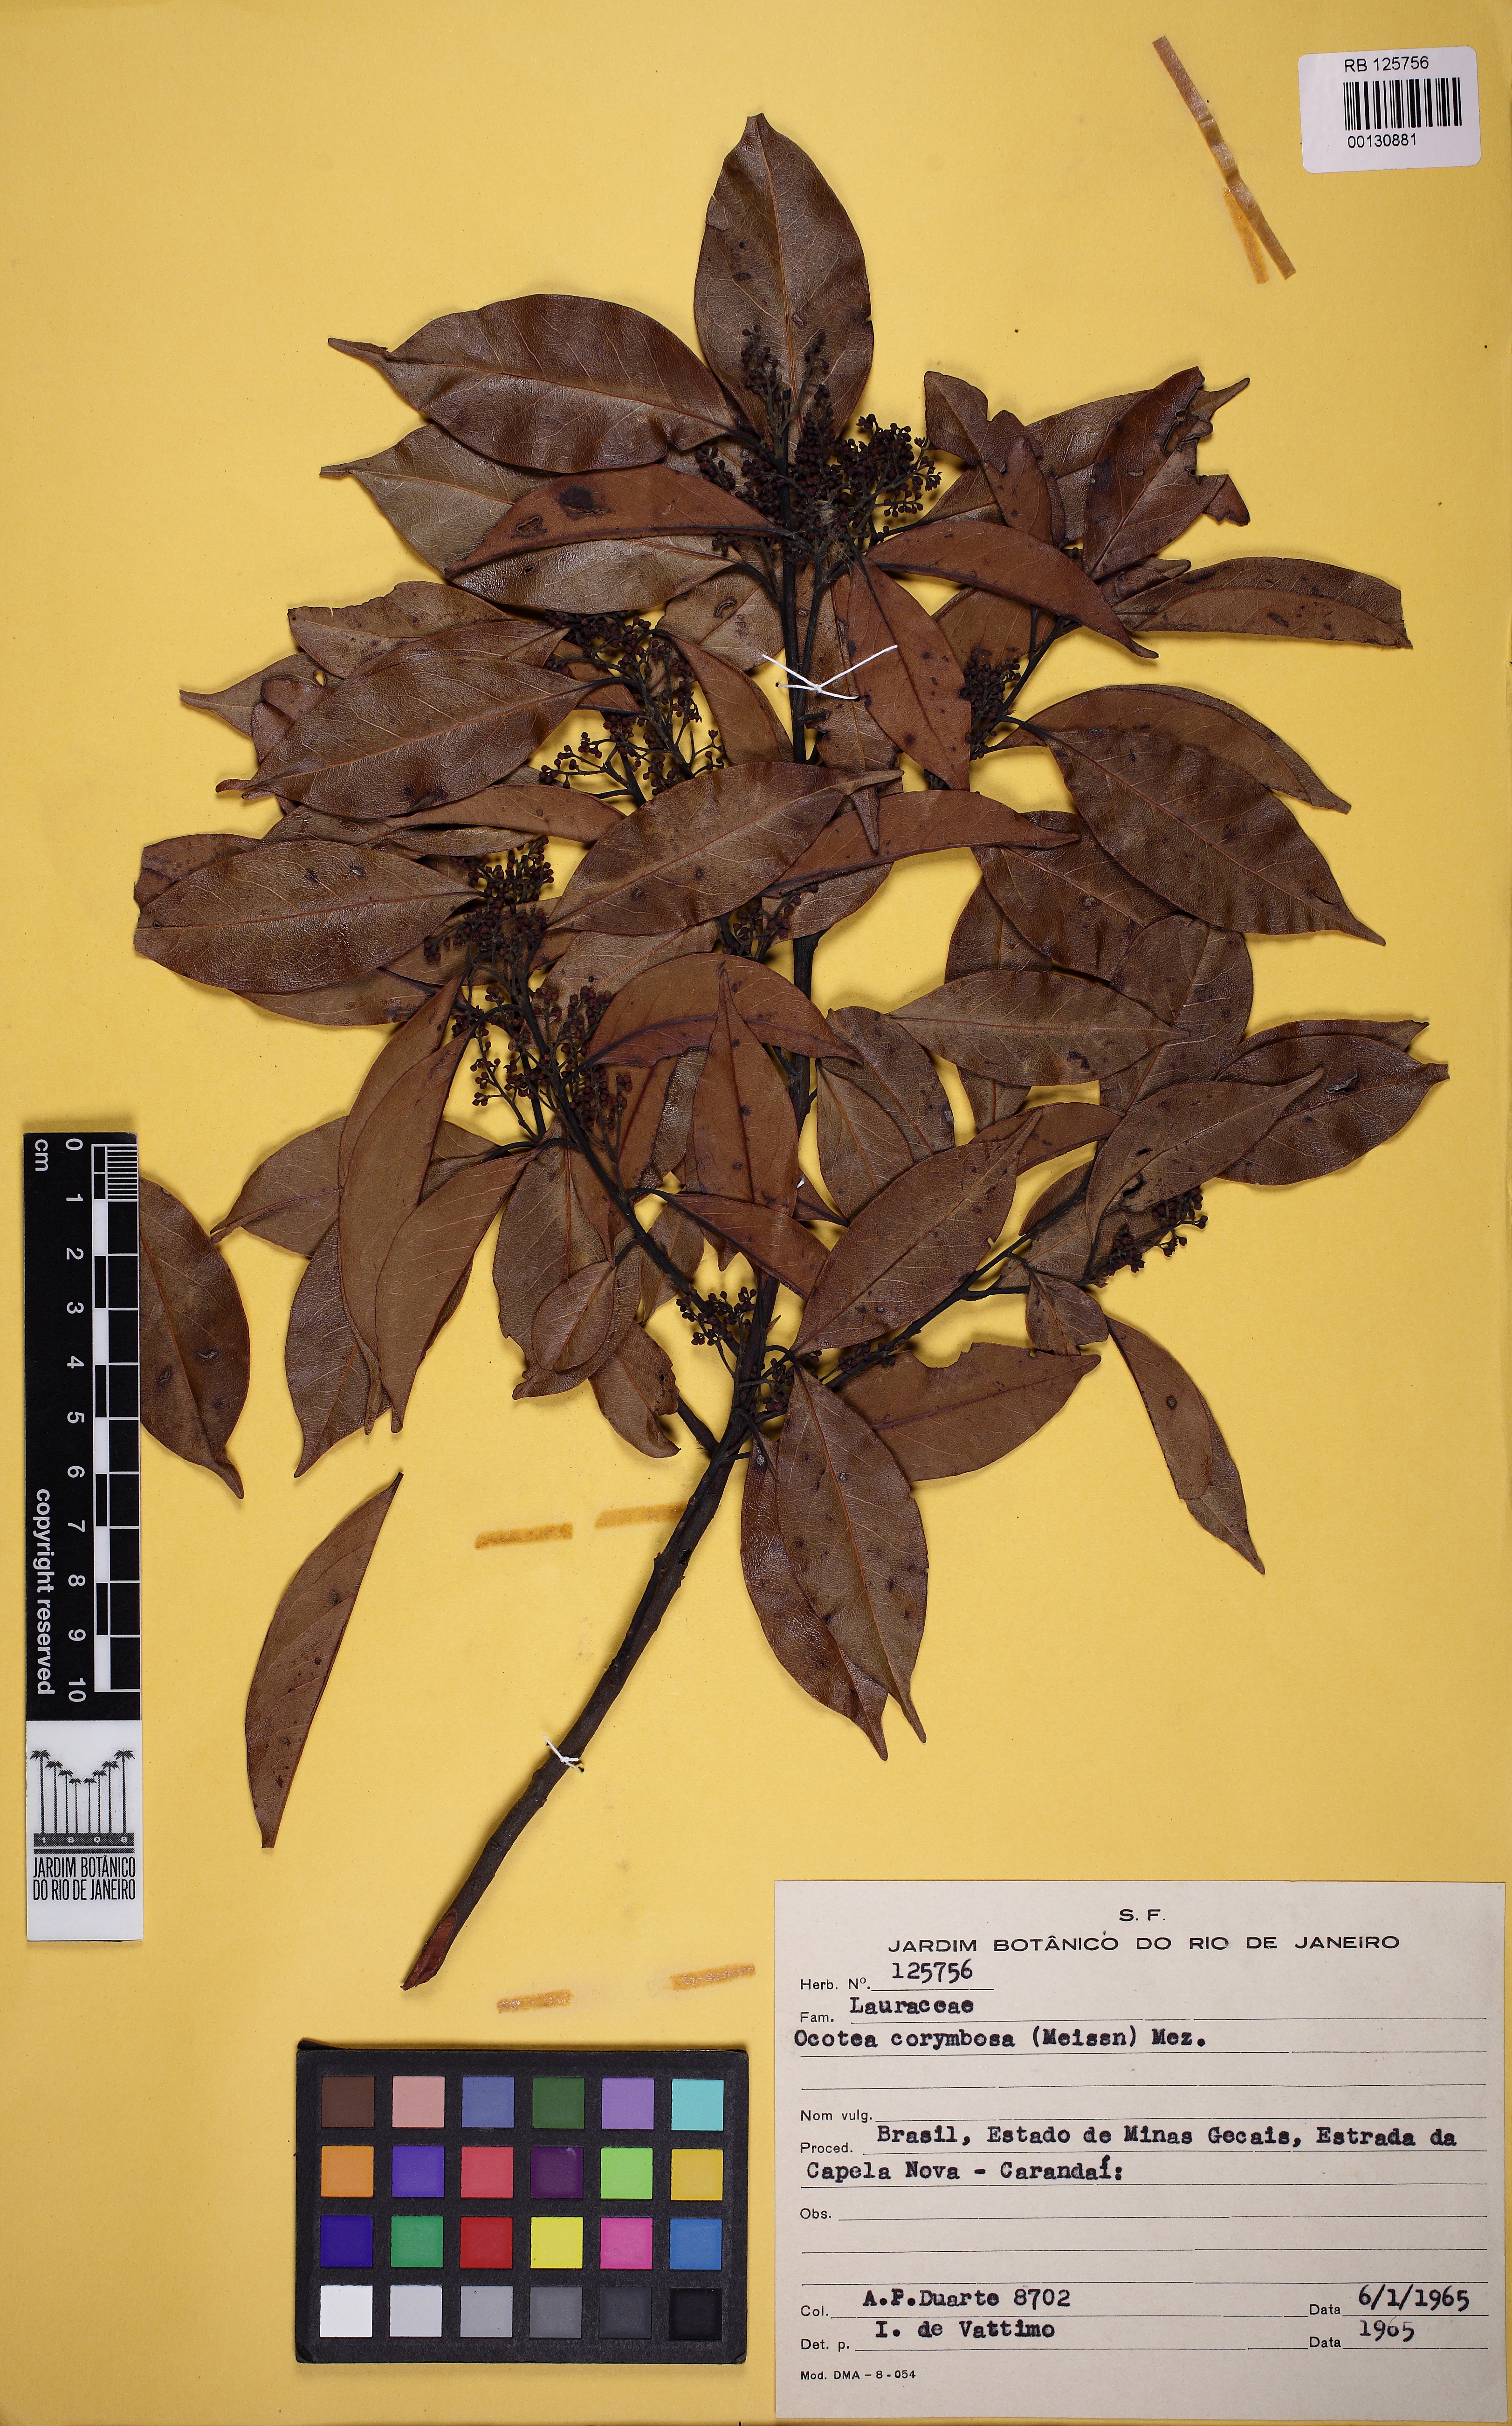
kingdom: Plantae
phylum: Tracheophyta
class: Magnoliopsida
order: Laurales
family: Lauraceae
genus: Mespilodaphne
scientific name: Mespilodaphne corymbosa
